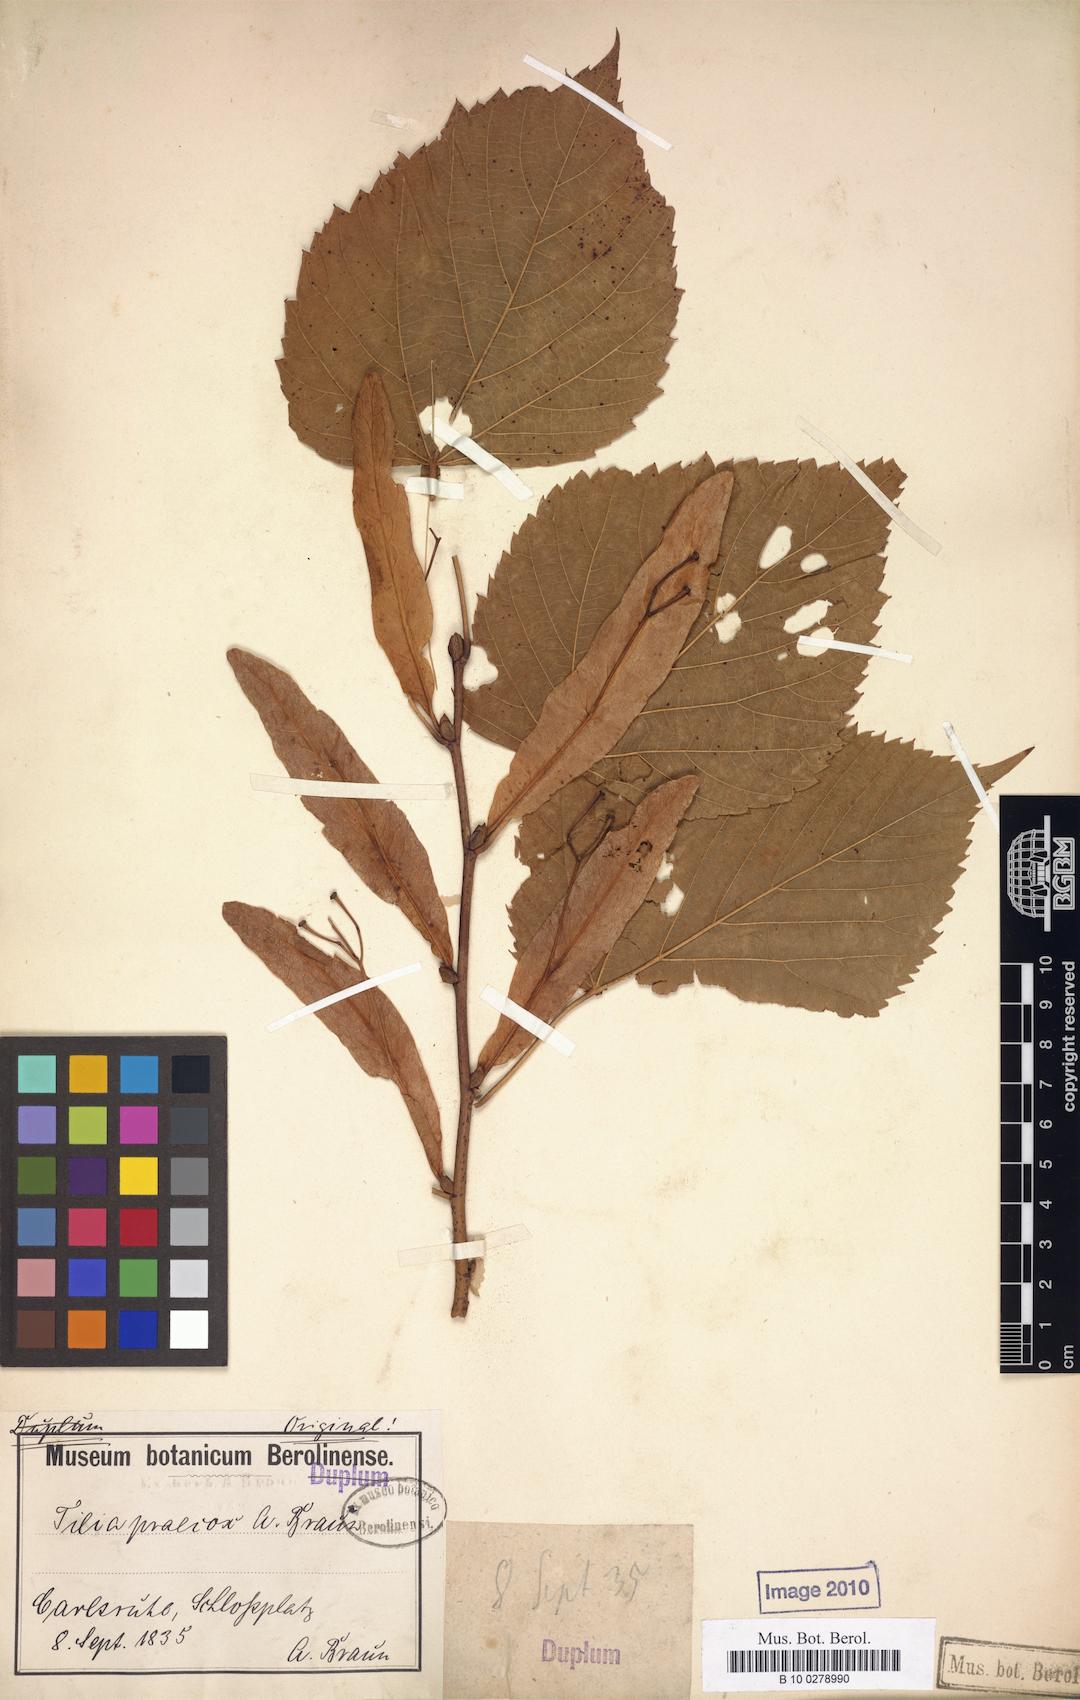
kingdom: Plantae
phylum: Tracheophyta
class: Magnoliopsida
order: Malvales
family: Malvaceae
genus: Tilia
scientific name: Tilia flaccida
